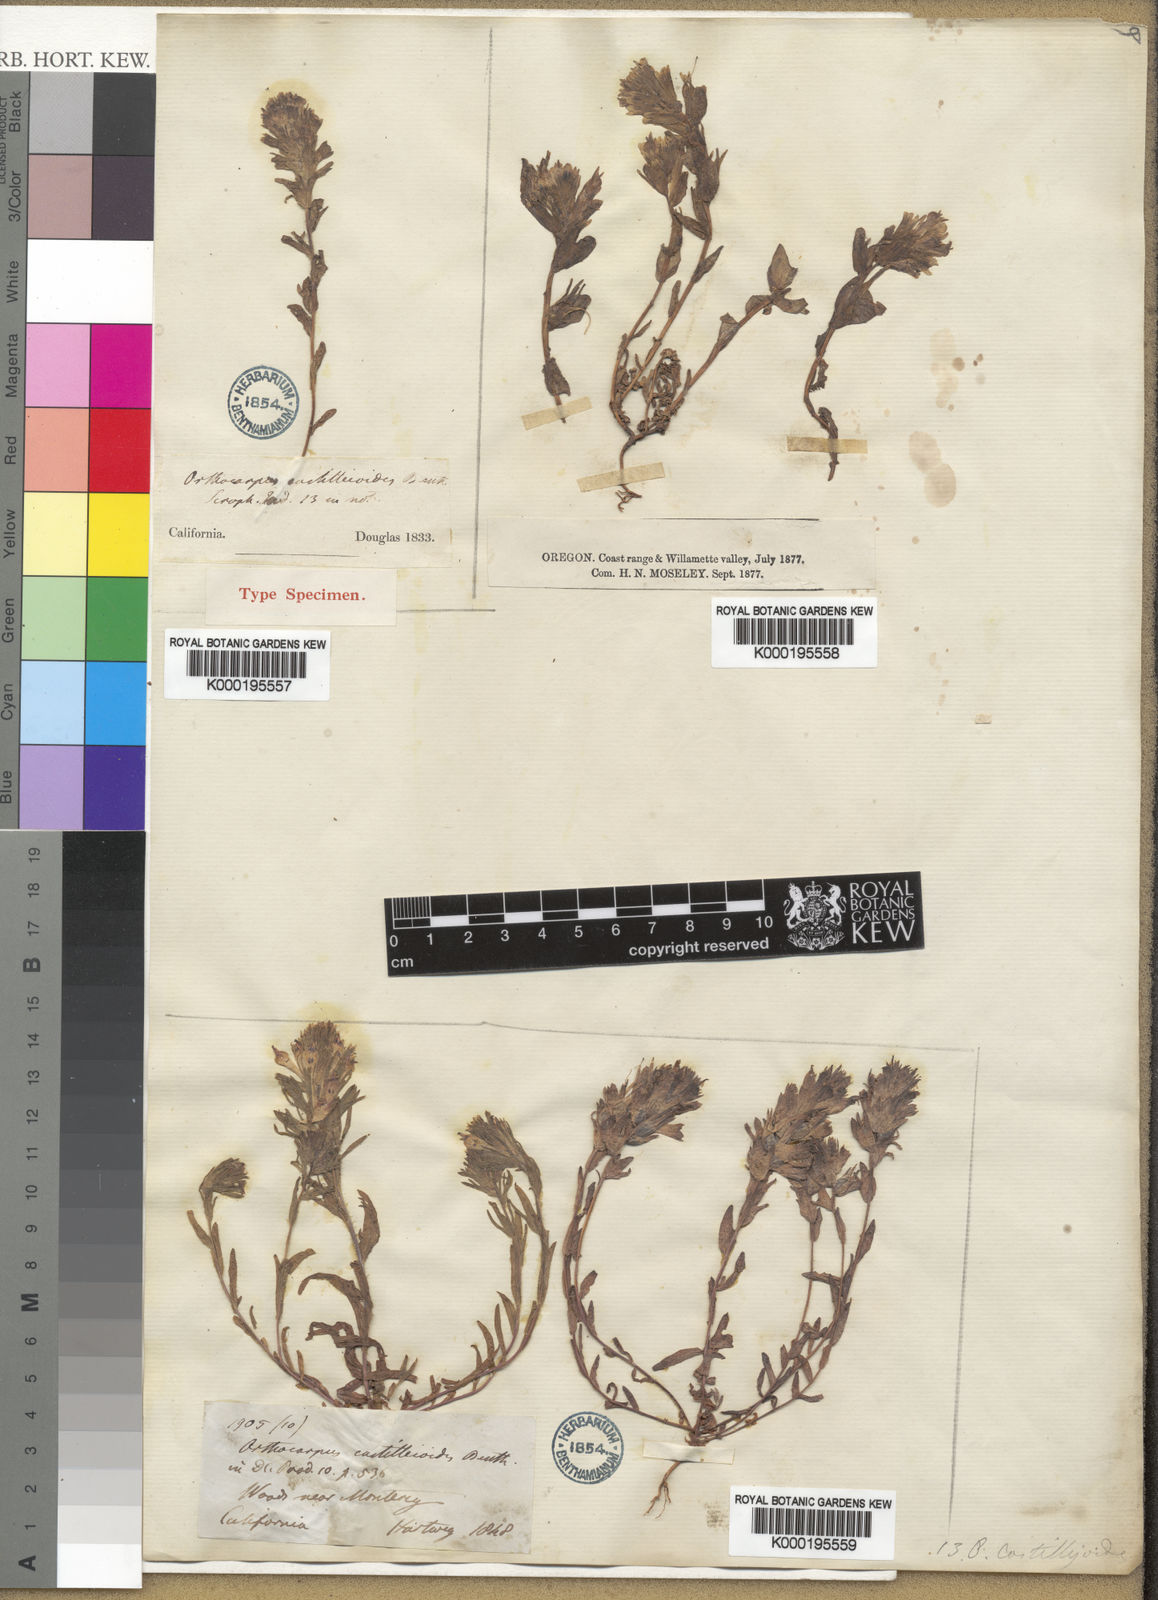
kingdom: Plantae
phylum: Tracheophyta
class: Magnoliopsida
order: Lamiales
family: Orobanchaceae
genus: Castilleja
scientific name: Castilleja ambigua
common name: Johnny-nip
